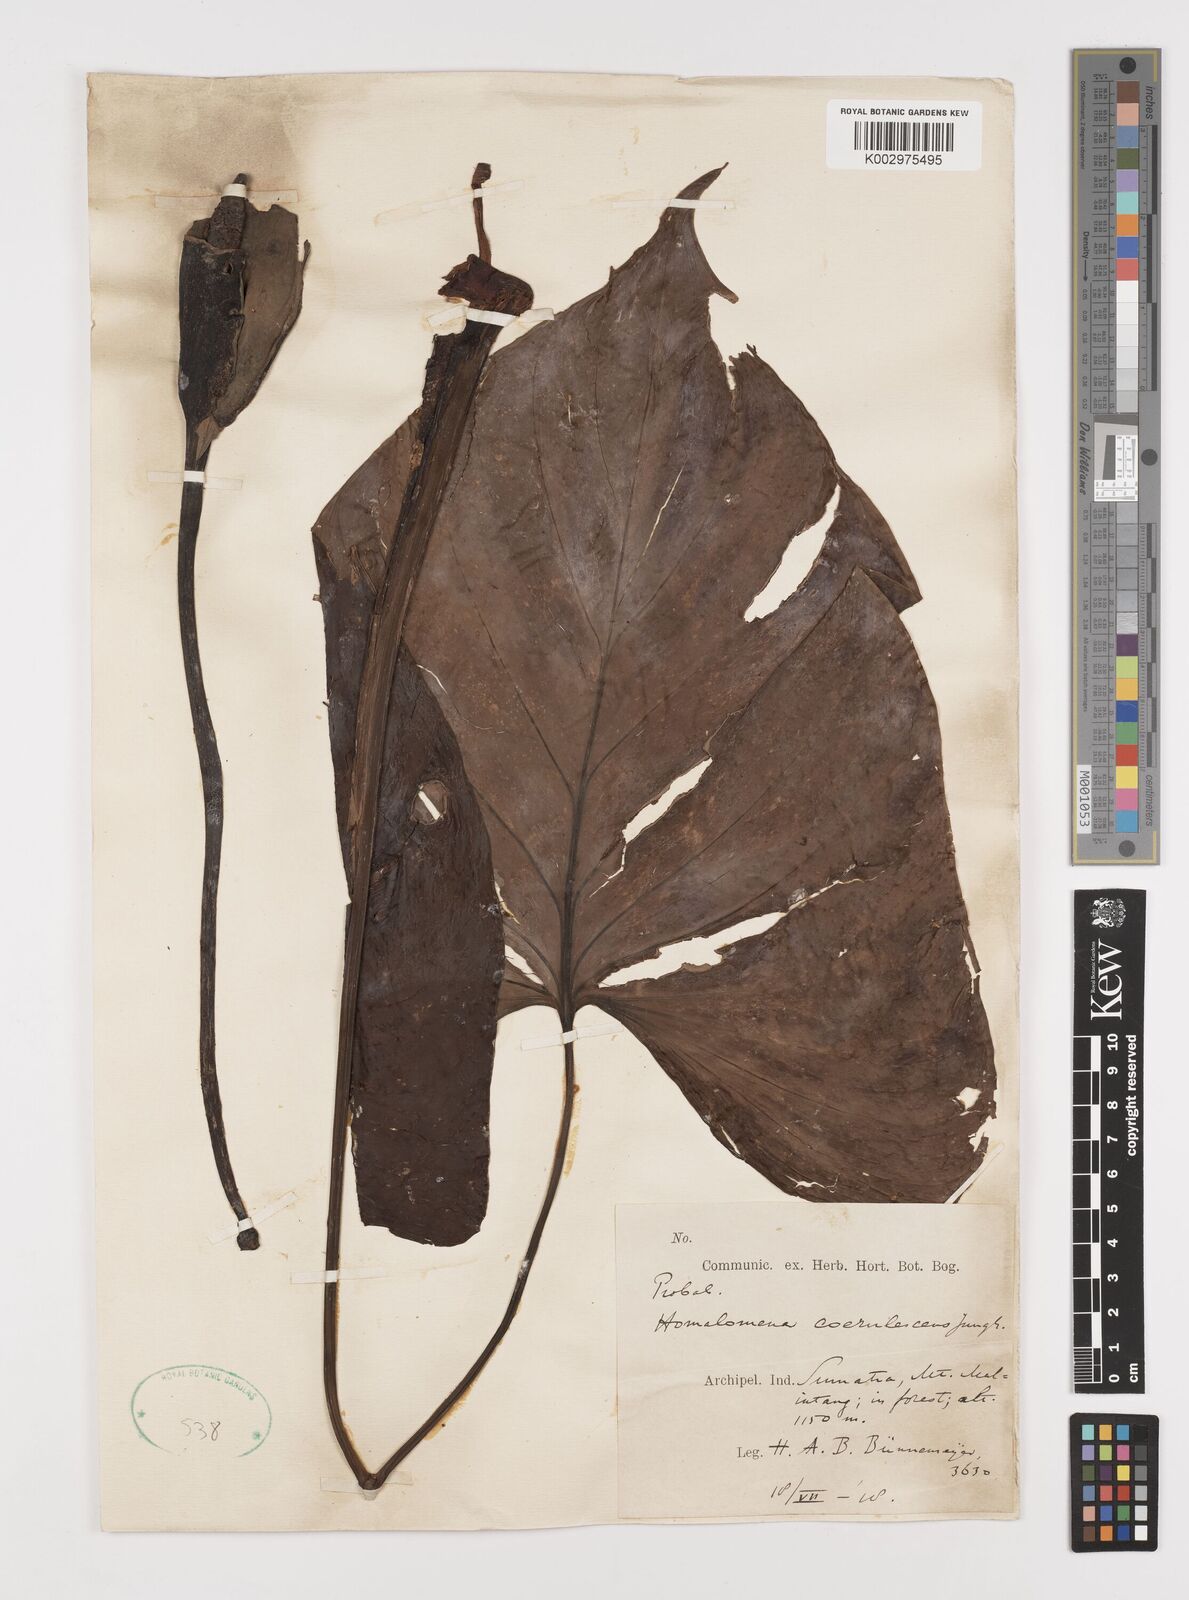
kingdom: Plantae
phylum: Tracheophyta
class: Liliopsida
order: Alismatales
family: Araceae
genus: Homalomena
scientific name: Homalomena pendula
